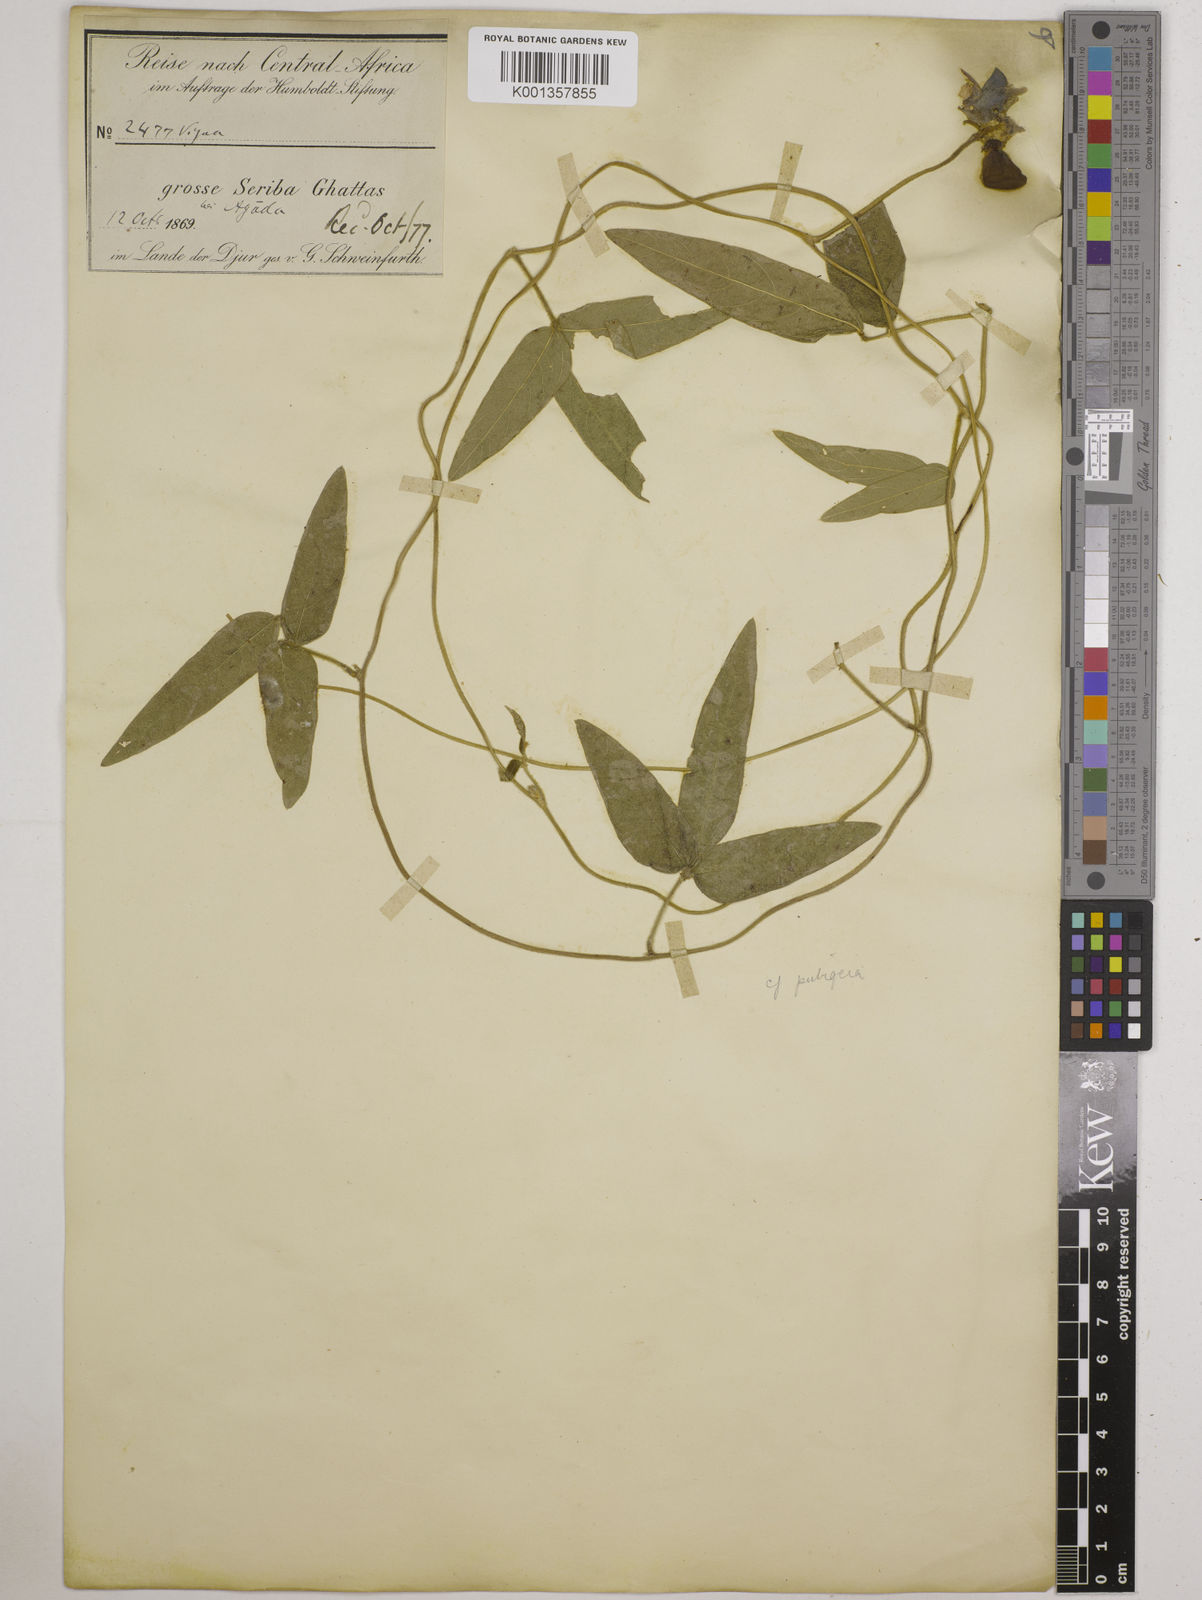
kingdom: Plantae
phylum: Tracheophyta
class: Magnoliopsida
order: Fabales
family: Fabaceae
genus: Vigna
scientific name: Vigna ambacensis
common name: Tsarkiyan zomo
